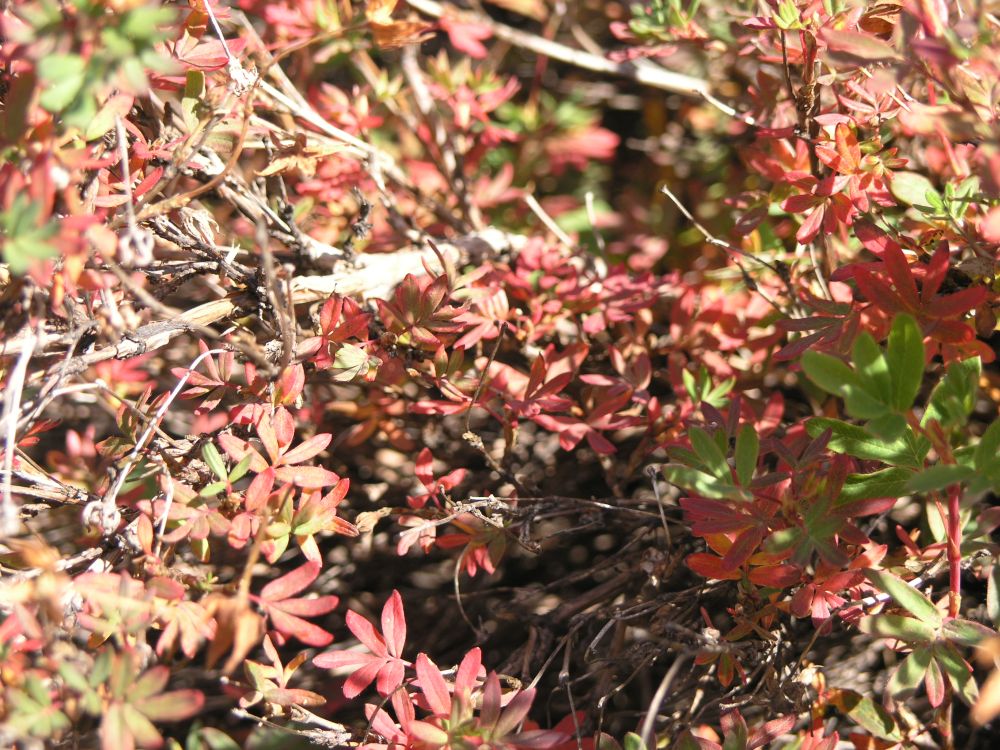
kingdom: Plantae
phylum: Tracheophyta
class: Magnoliopsida
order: Rosales
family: Rosaceae
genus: Dasiphora
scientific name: Dasiphora fruticosa
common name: Shrubby cinquefoil
